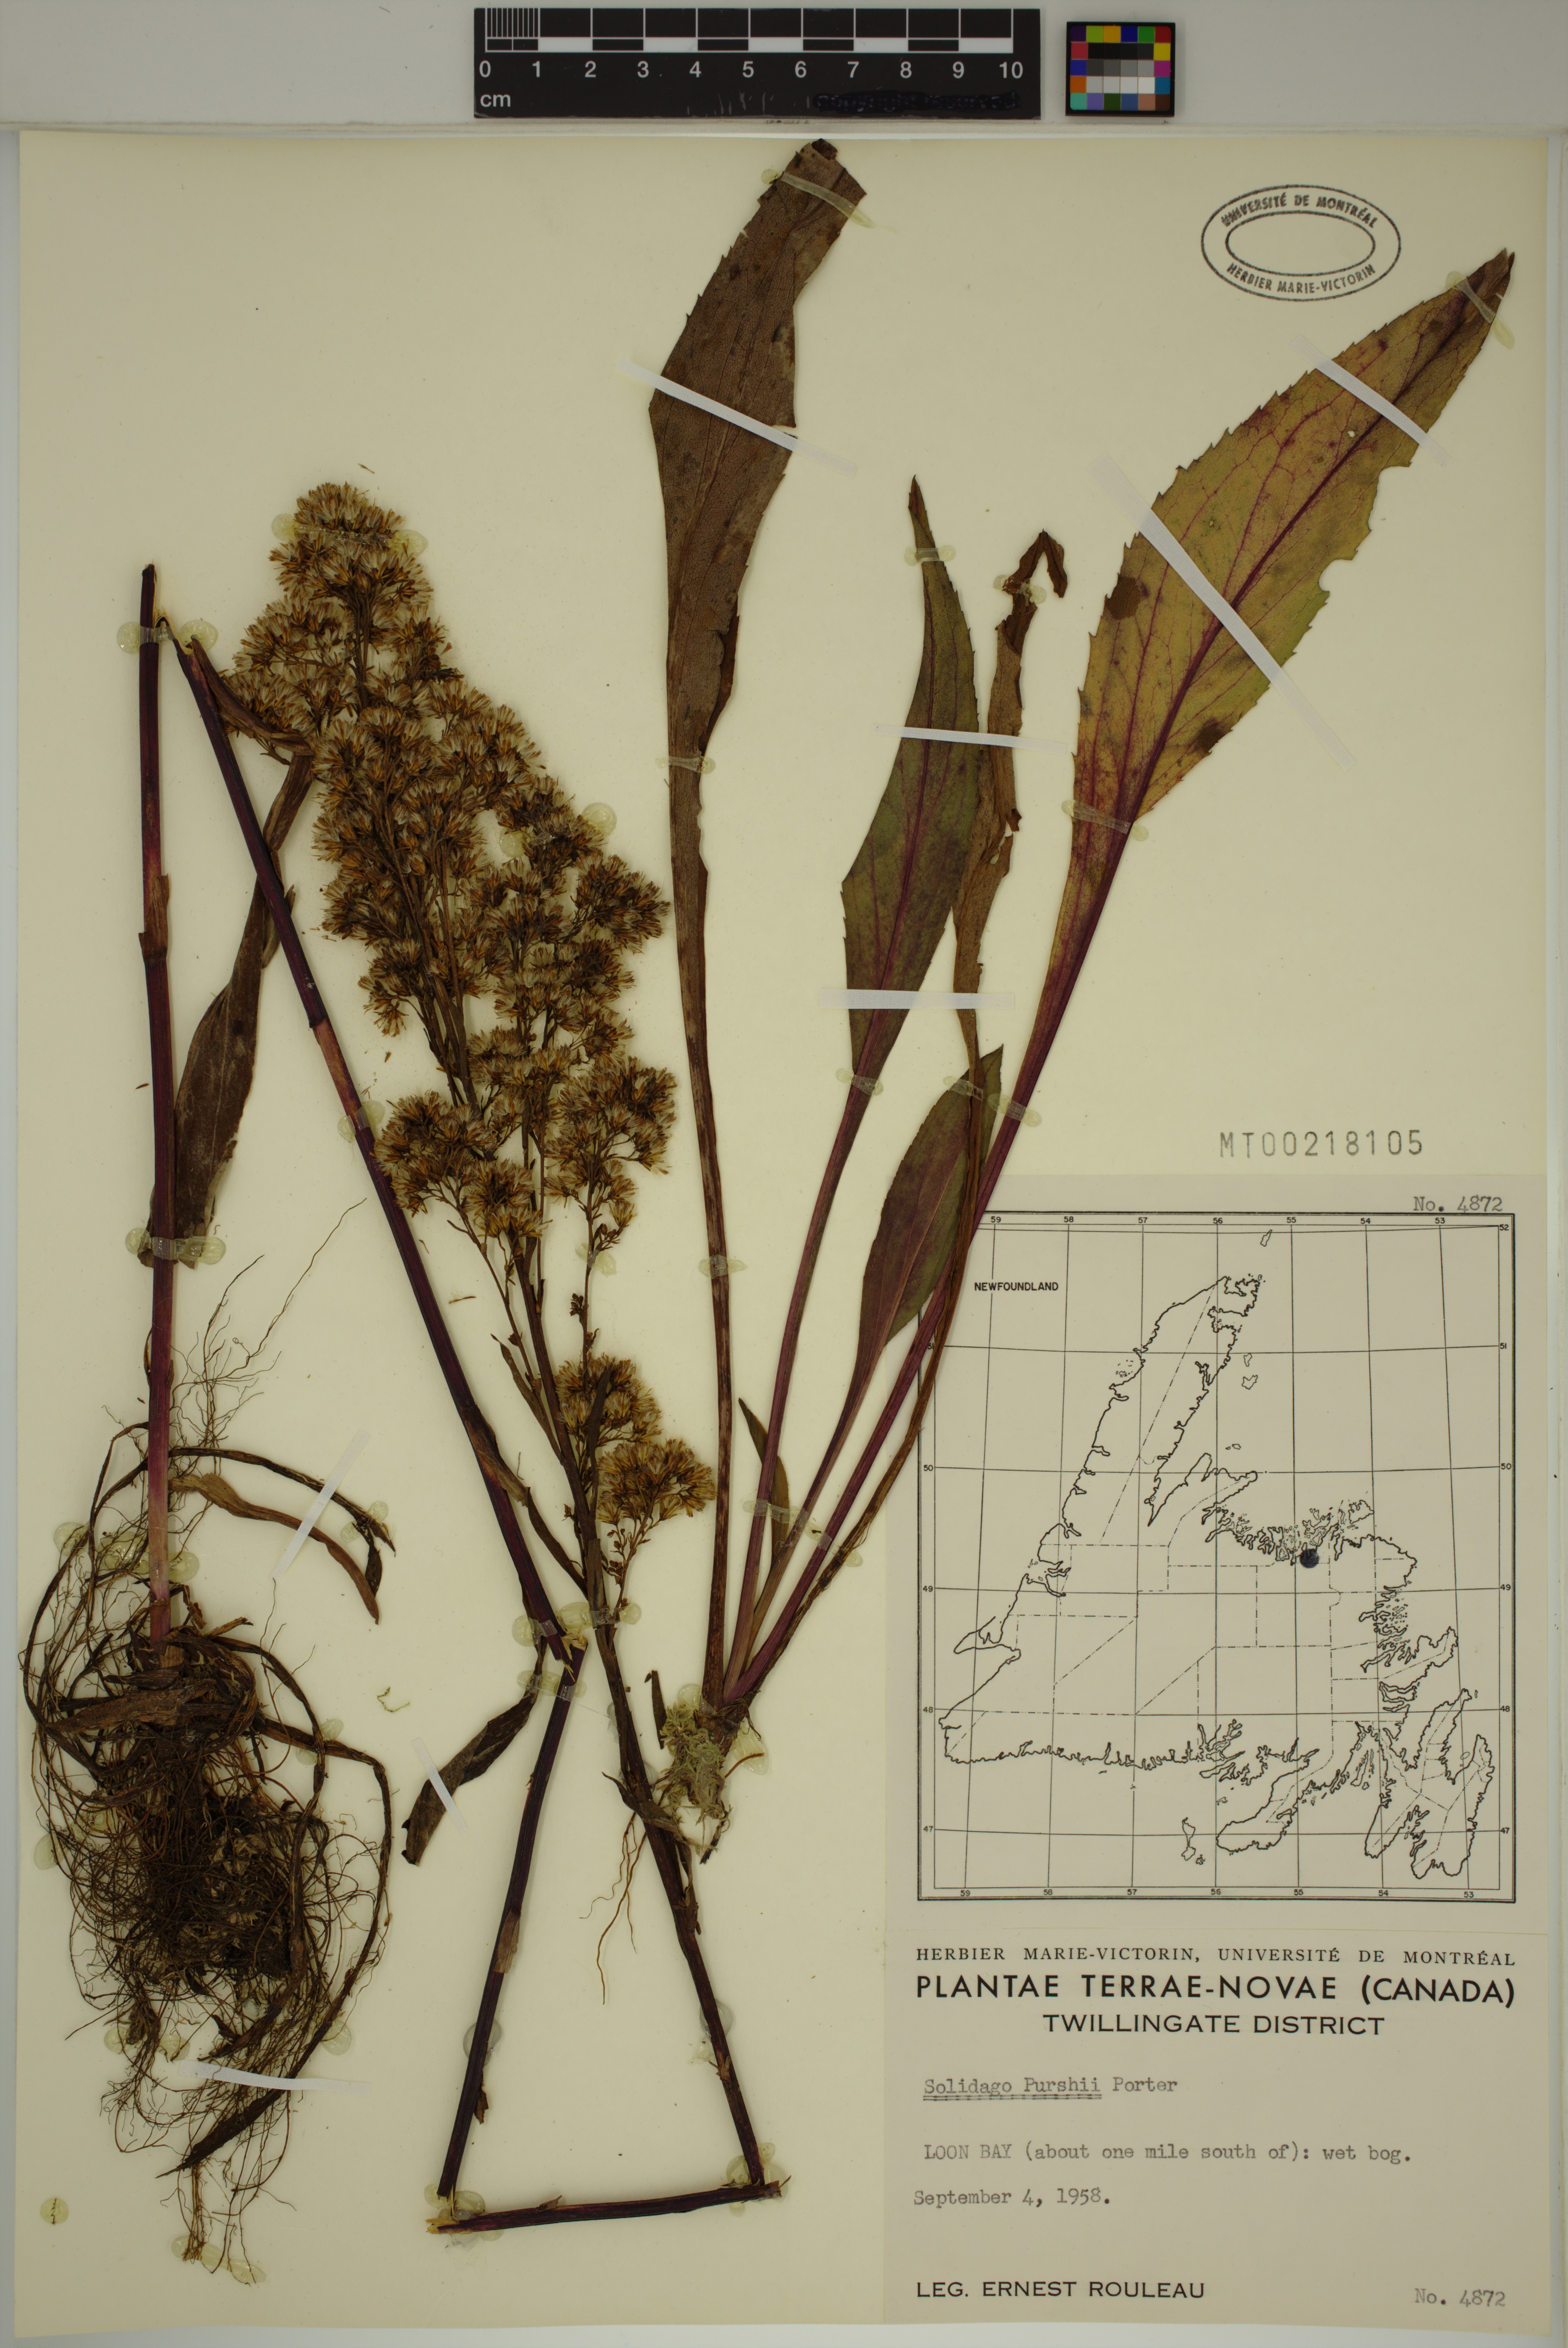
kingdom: Plantae
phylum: Tracheophyta
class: Magnoliopsida
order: Asterales
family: Asteraceae
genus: Solidago
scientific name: Solidago uliginosa
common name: Bog goldenrod
